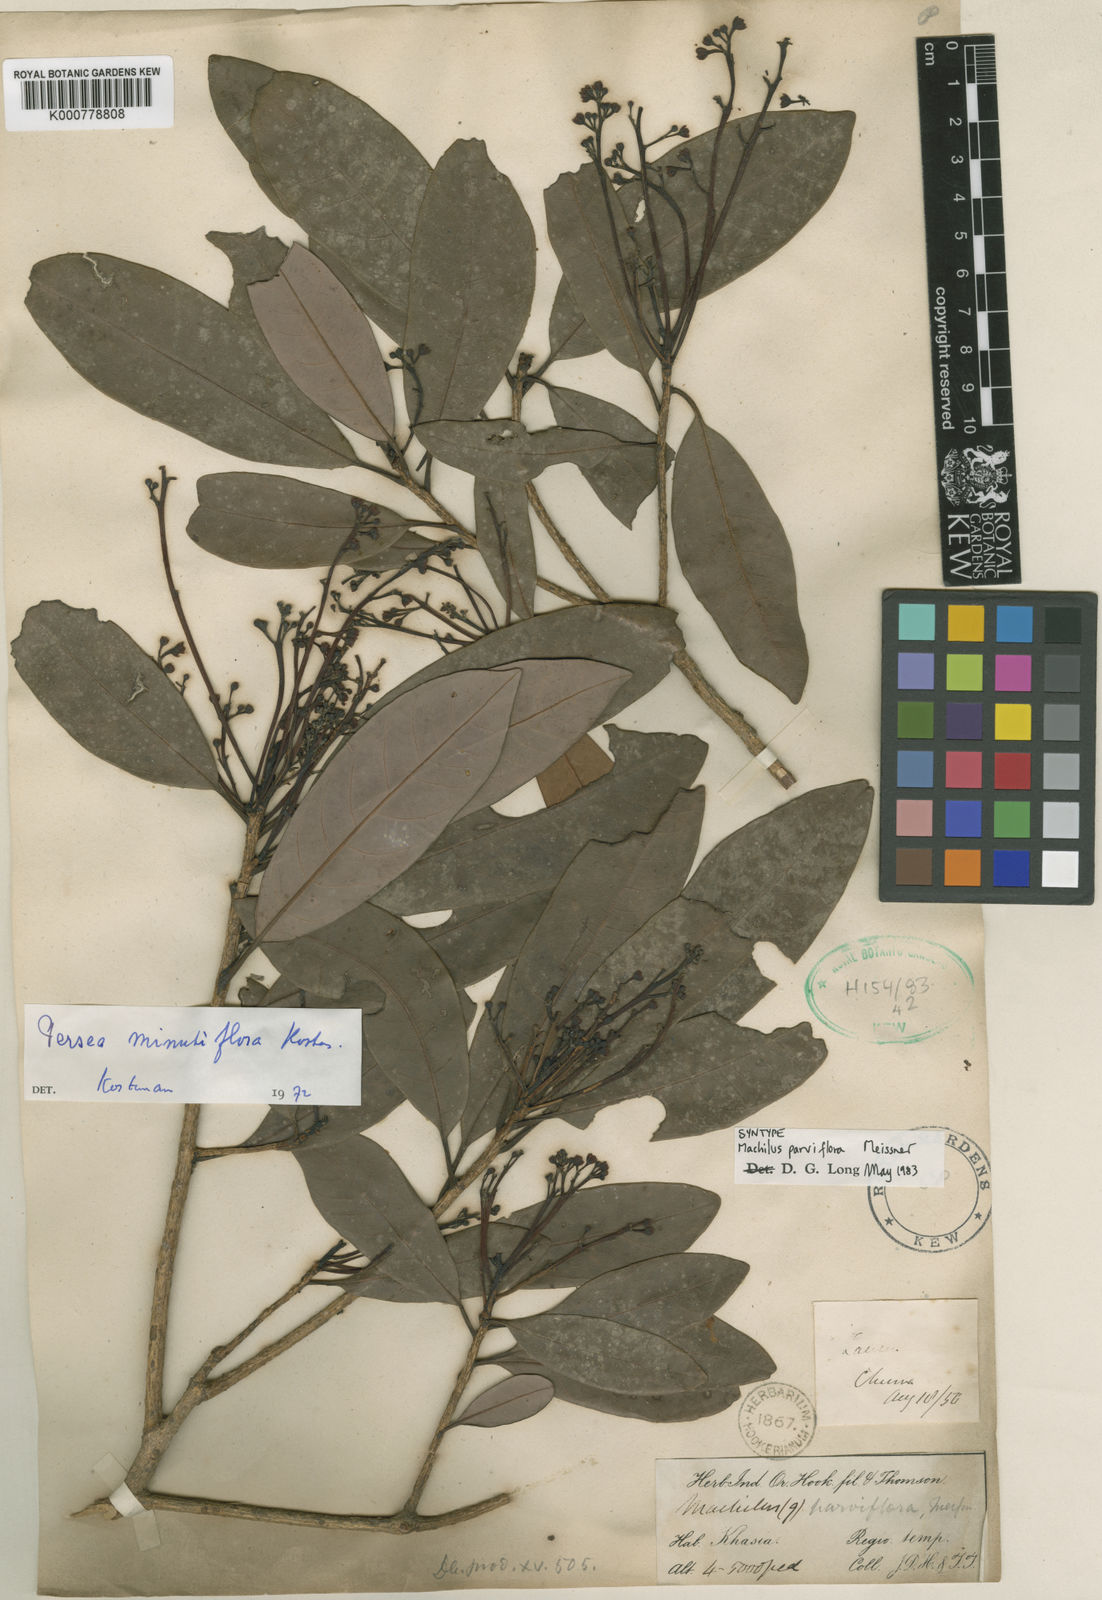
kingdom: Plantae
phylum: Tracheophyta
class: Magnoliopsida
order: Laurales
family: Lauraceae
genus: Machilus
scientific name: Machilus parviflora
